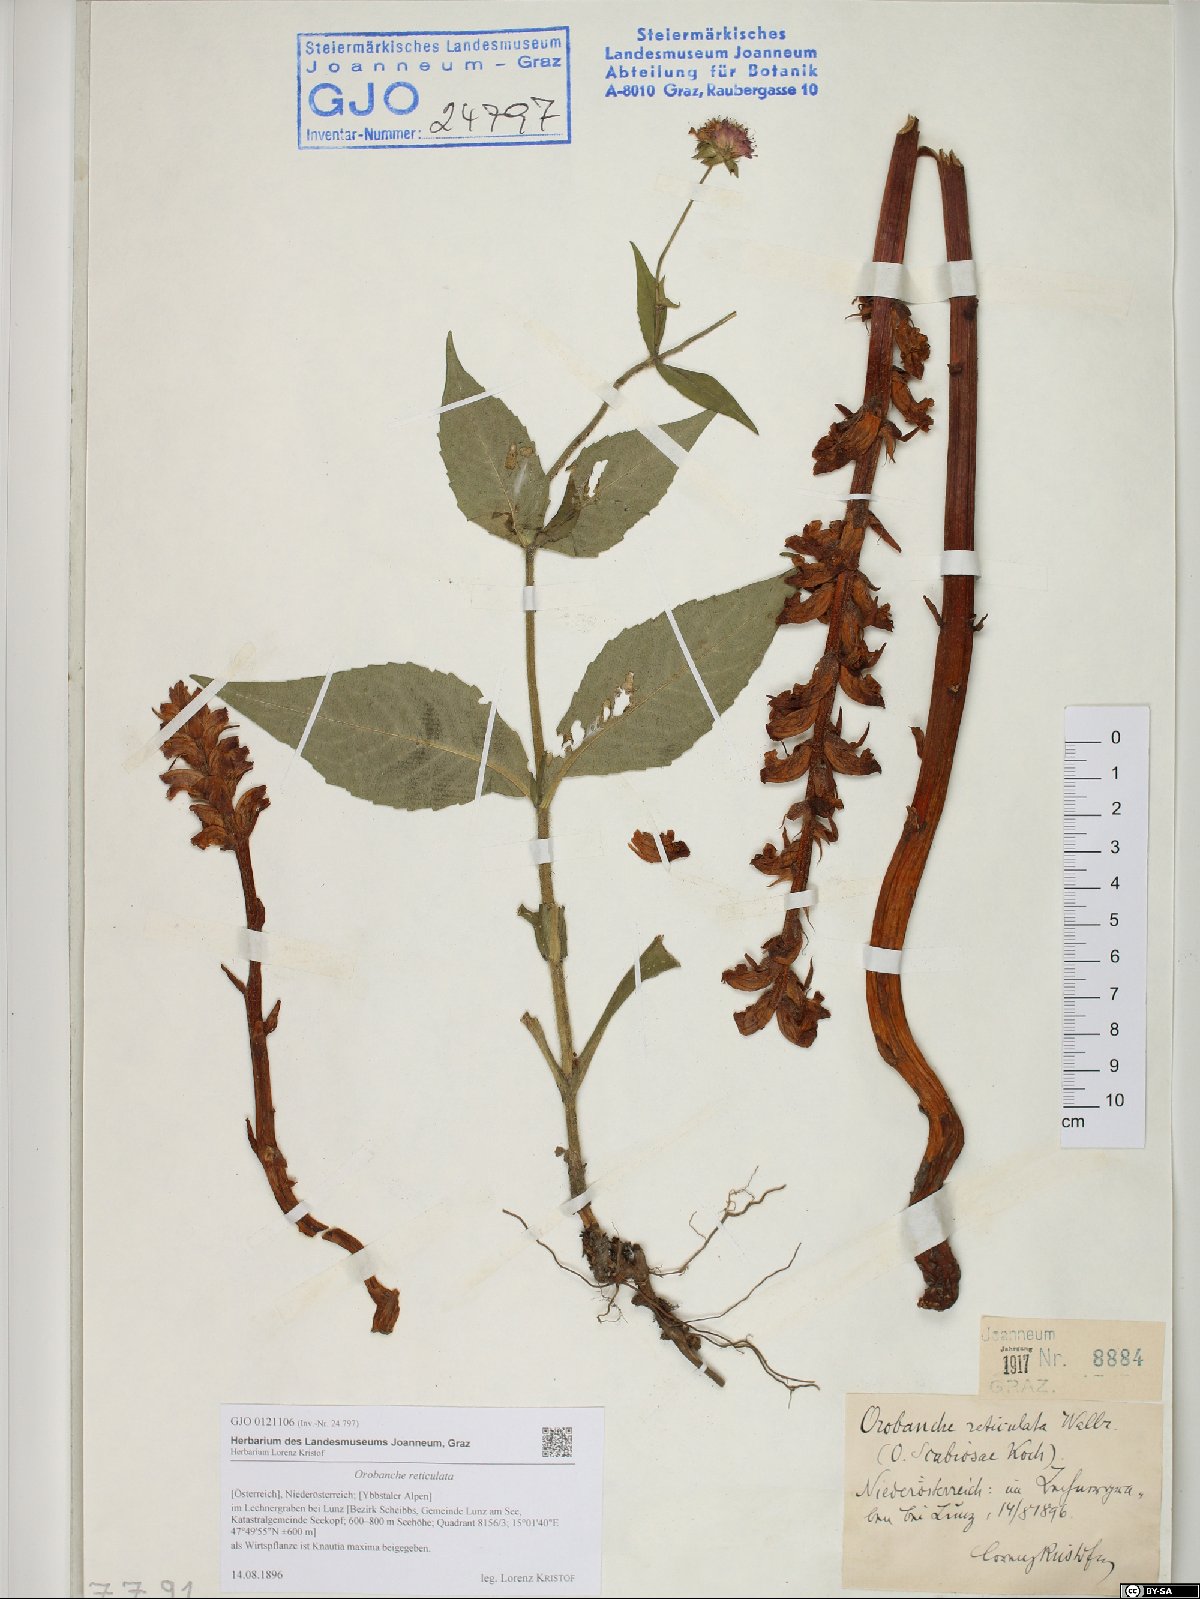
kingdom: Plantae
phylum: Tracheophyta
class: Magnoliopsida
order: Lamiales
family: Orobanchaceae
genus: Orobanche
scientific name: Orobanche reticulata
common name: Thistle broomrape
